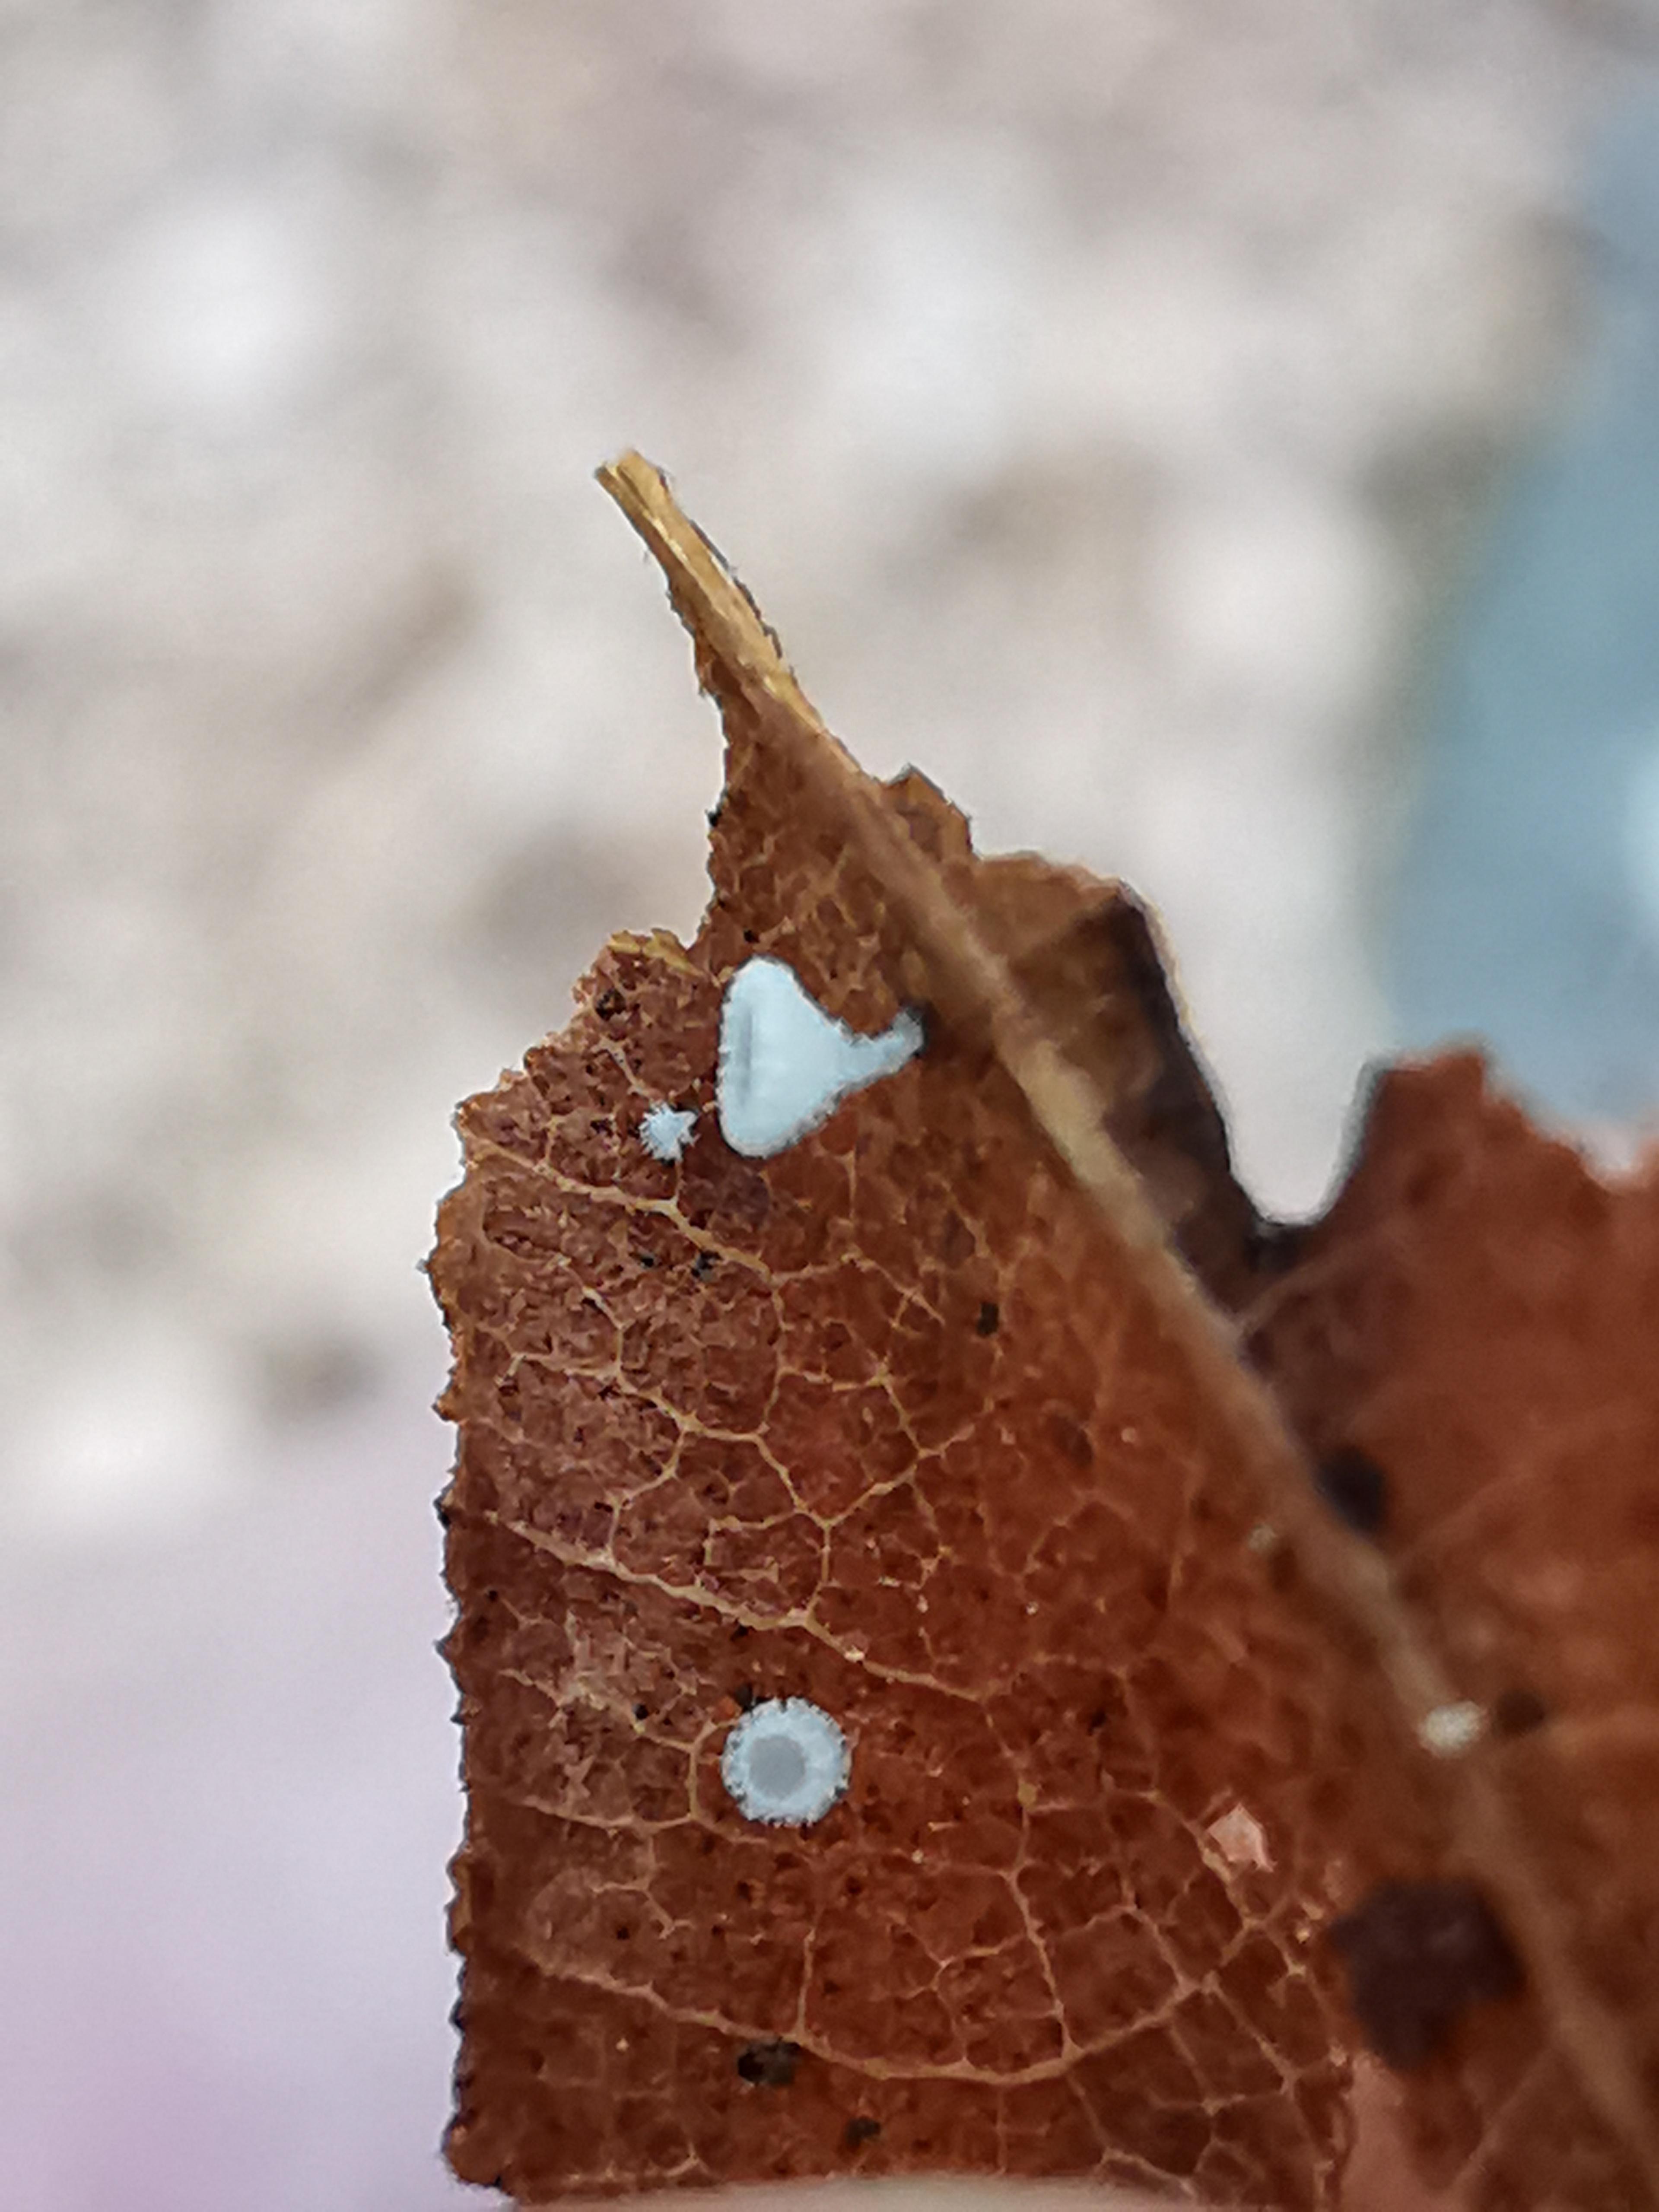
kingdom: Fungi
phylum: Ascomycota
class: Leotiomycetes
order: Helotiales
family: Lachnaceae
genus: Lachnum
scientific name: Lachnum
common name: frynseskive
